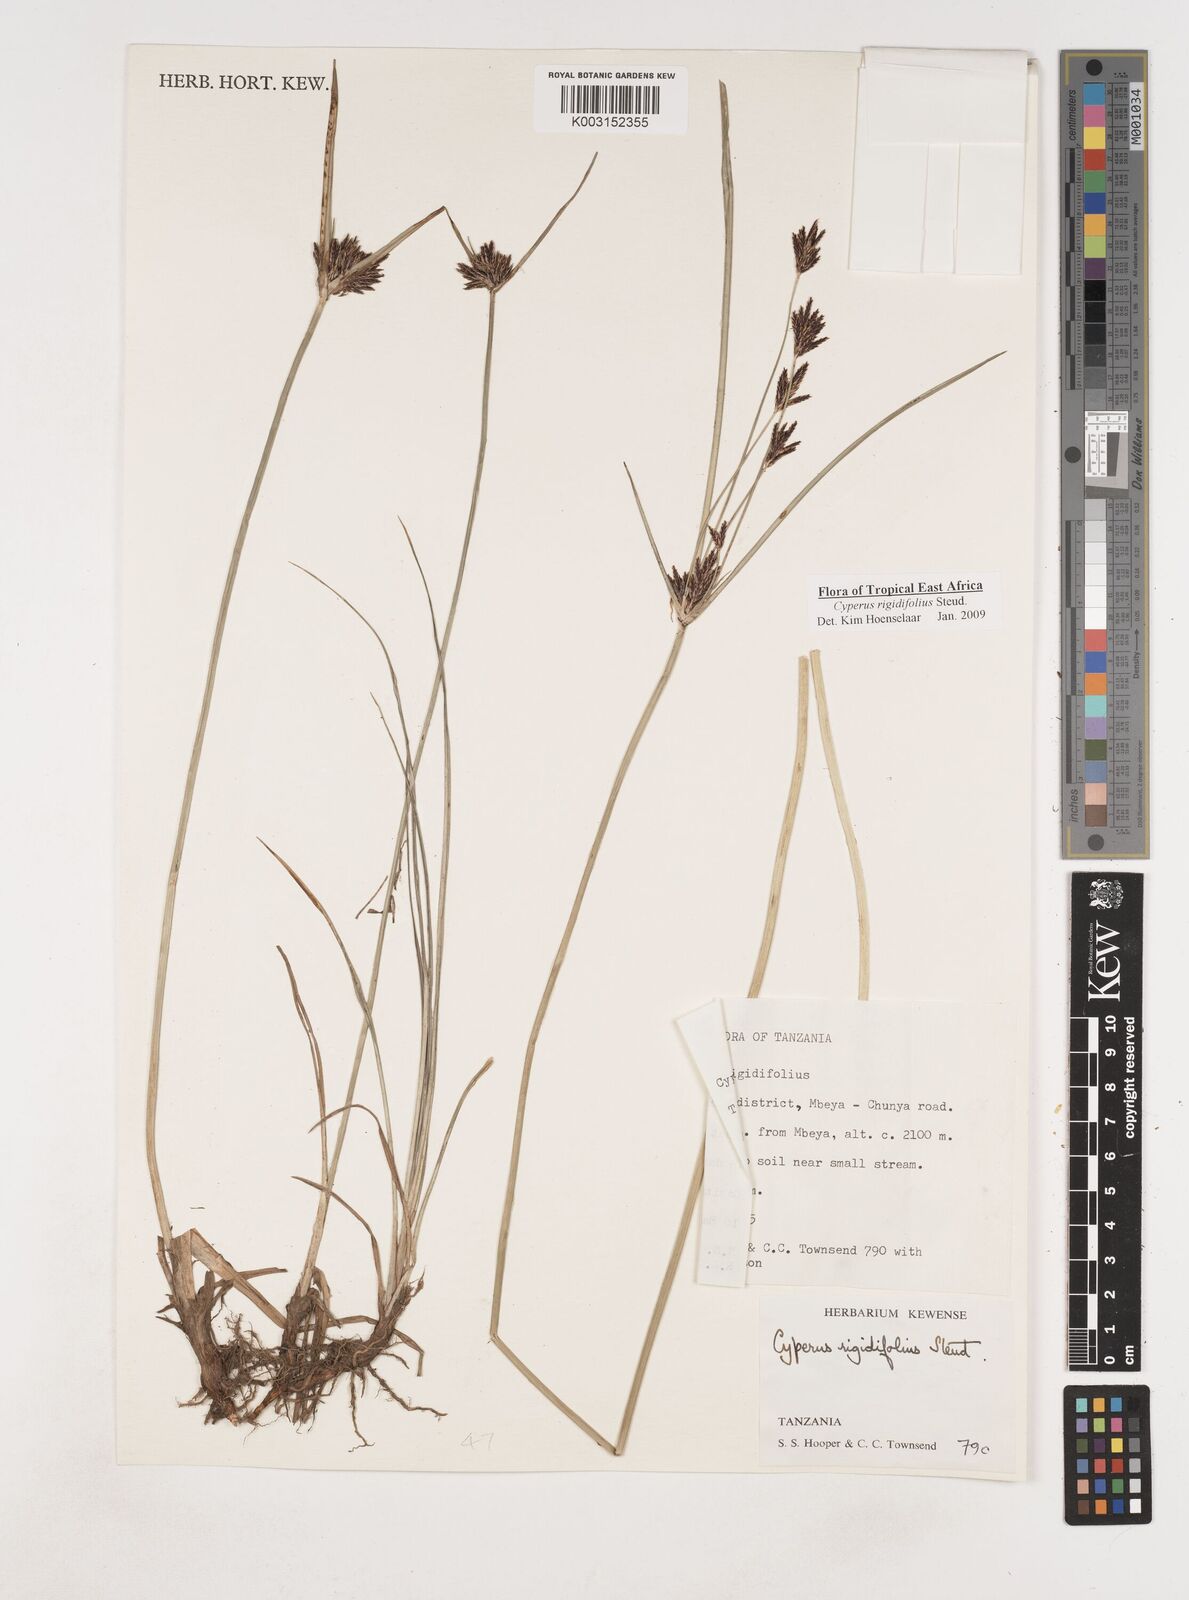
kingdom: Plantae
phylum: Tracheophyta
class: Liliopsida
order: Poales
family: Cyperaceae
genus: Cyperus
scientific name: Cyperus rigidifolius
